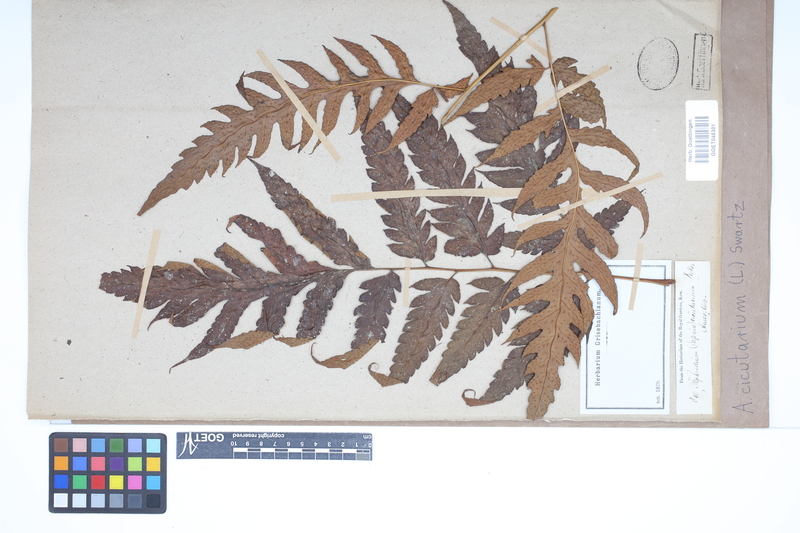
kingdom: Plantae
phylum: Tracheophyta
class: Polypodiopsida
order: Polypodiales
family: Tectariaceae
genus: Tectaria
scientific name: Tectaria cicutaria
